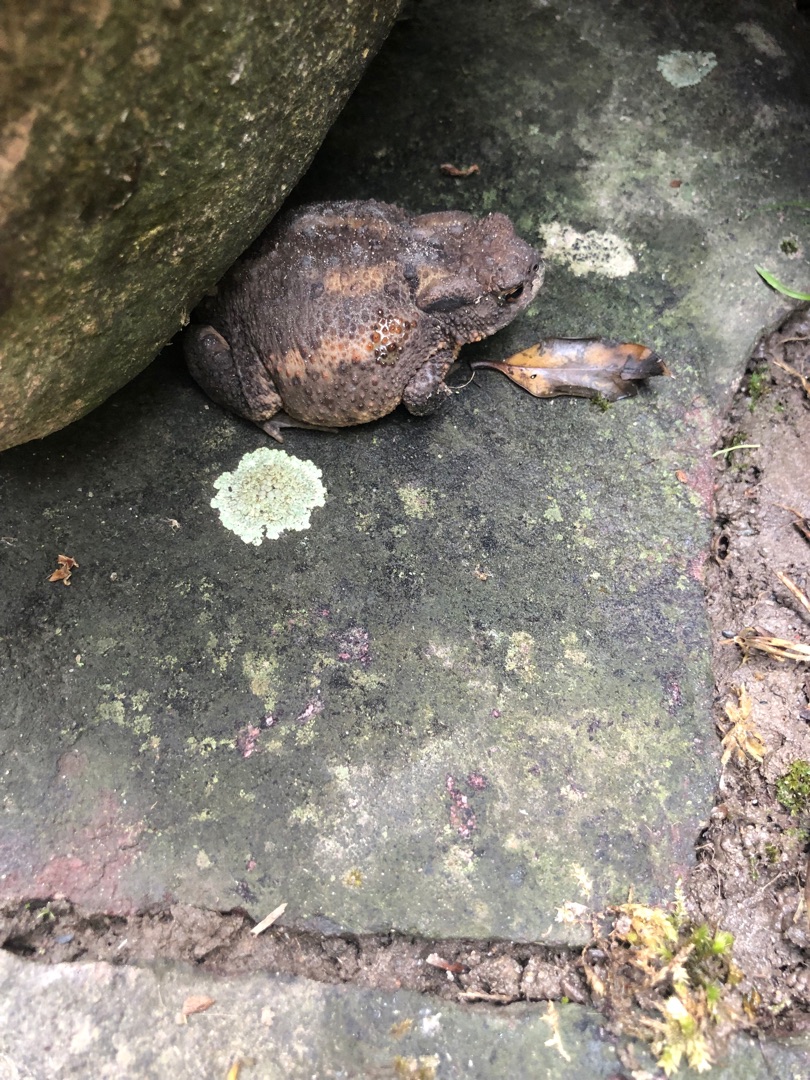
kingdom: Animalia
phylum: Chordata
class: Amphibia
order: Anura
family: Bufonidae
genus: Bufo
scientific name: Bufo bufo
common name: Skrubtudse
